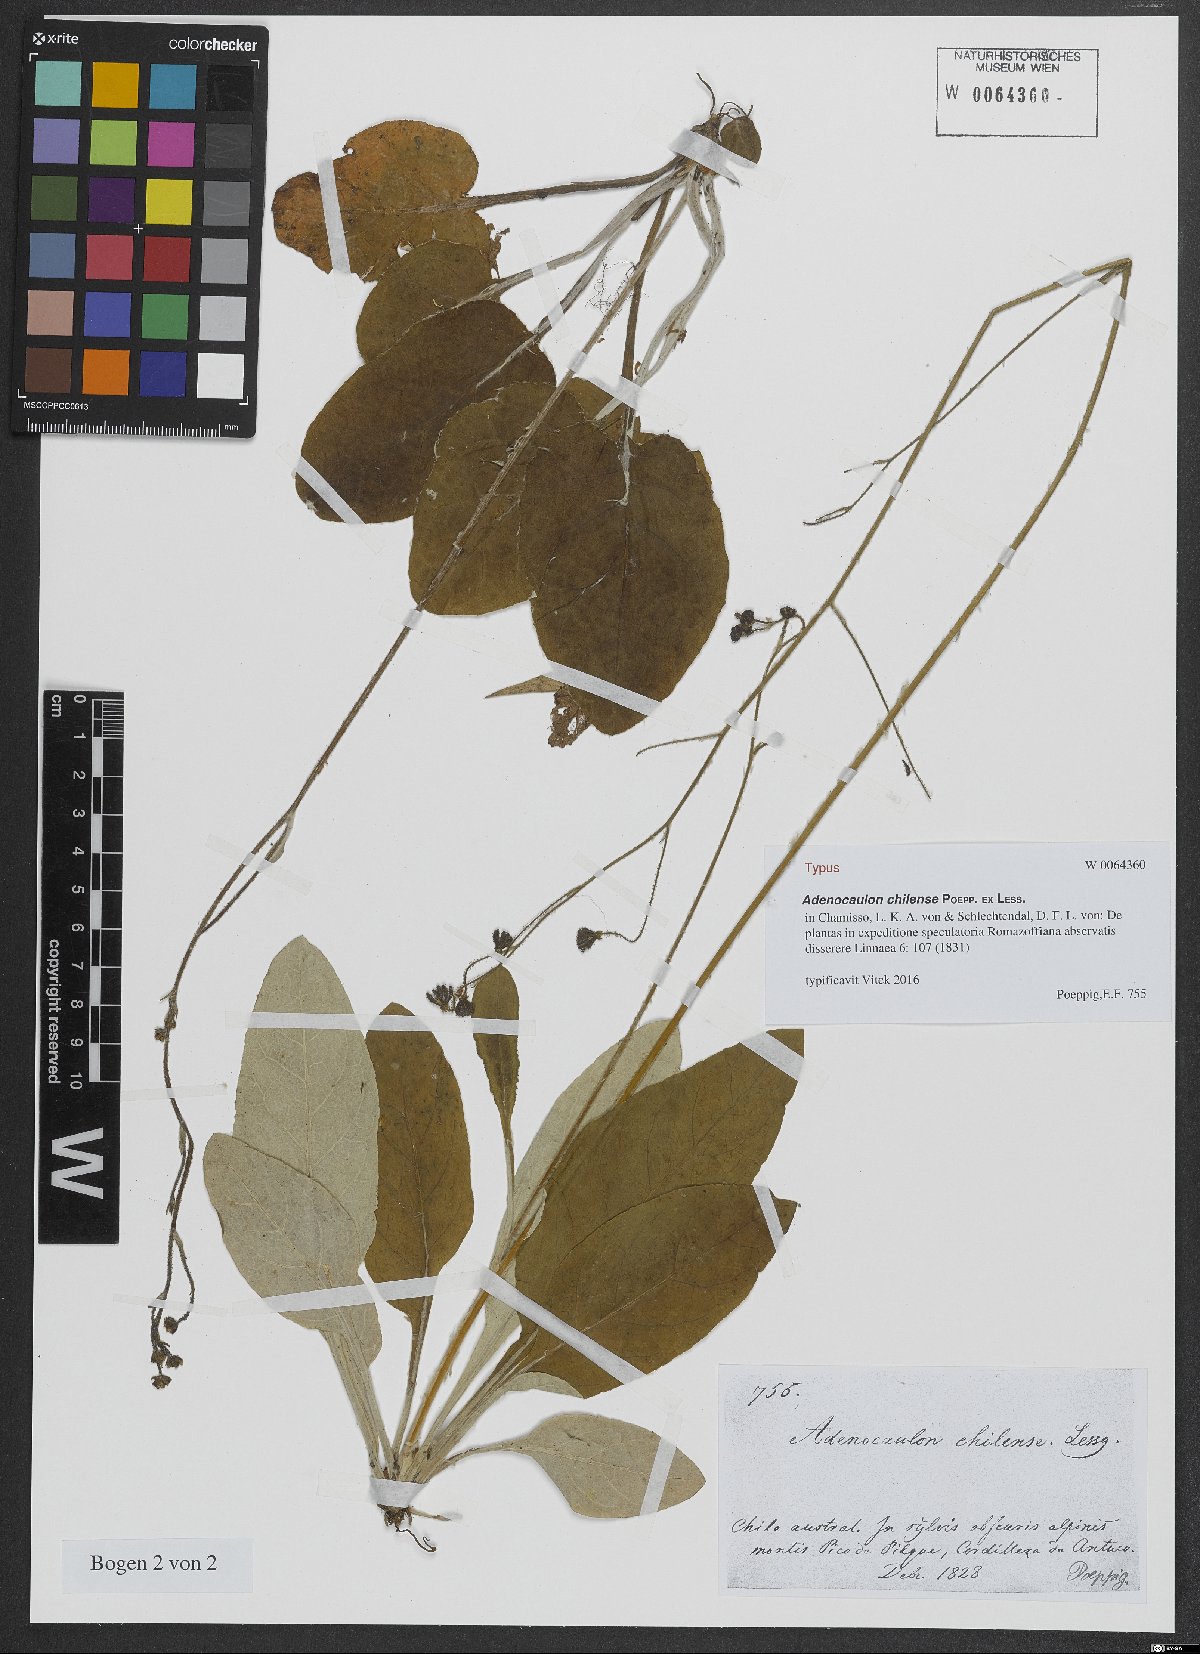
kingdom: Plantae
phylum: Tracheophyta
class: Magnoliopsida
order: Asterales
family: Asteraceae
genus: Adenocaulon
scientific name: Adenocaulon chilense
